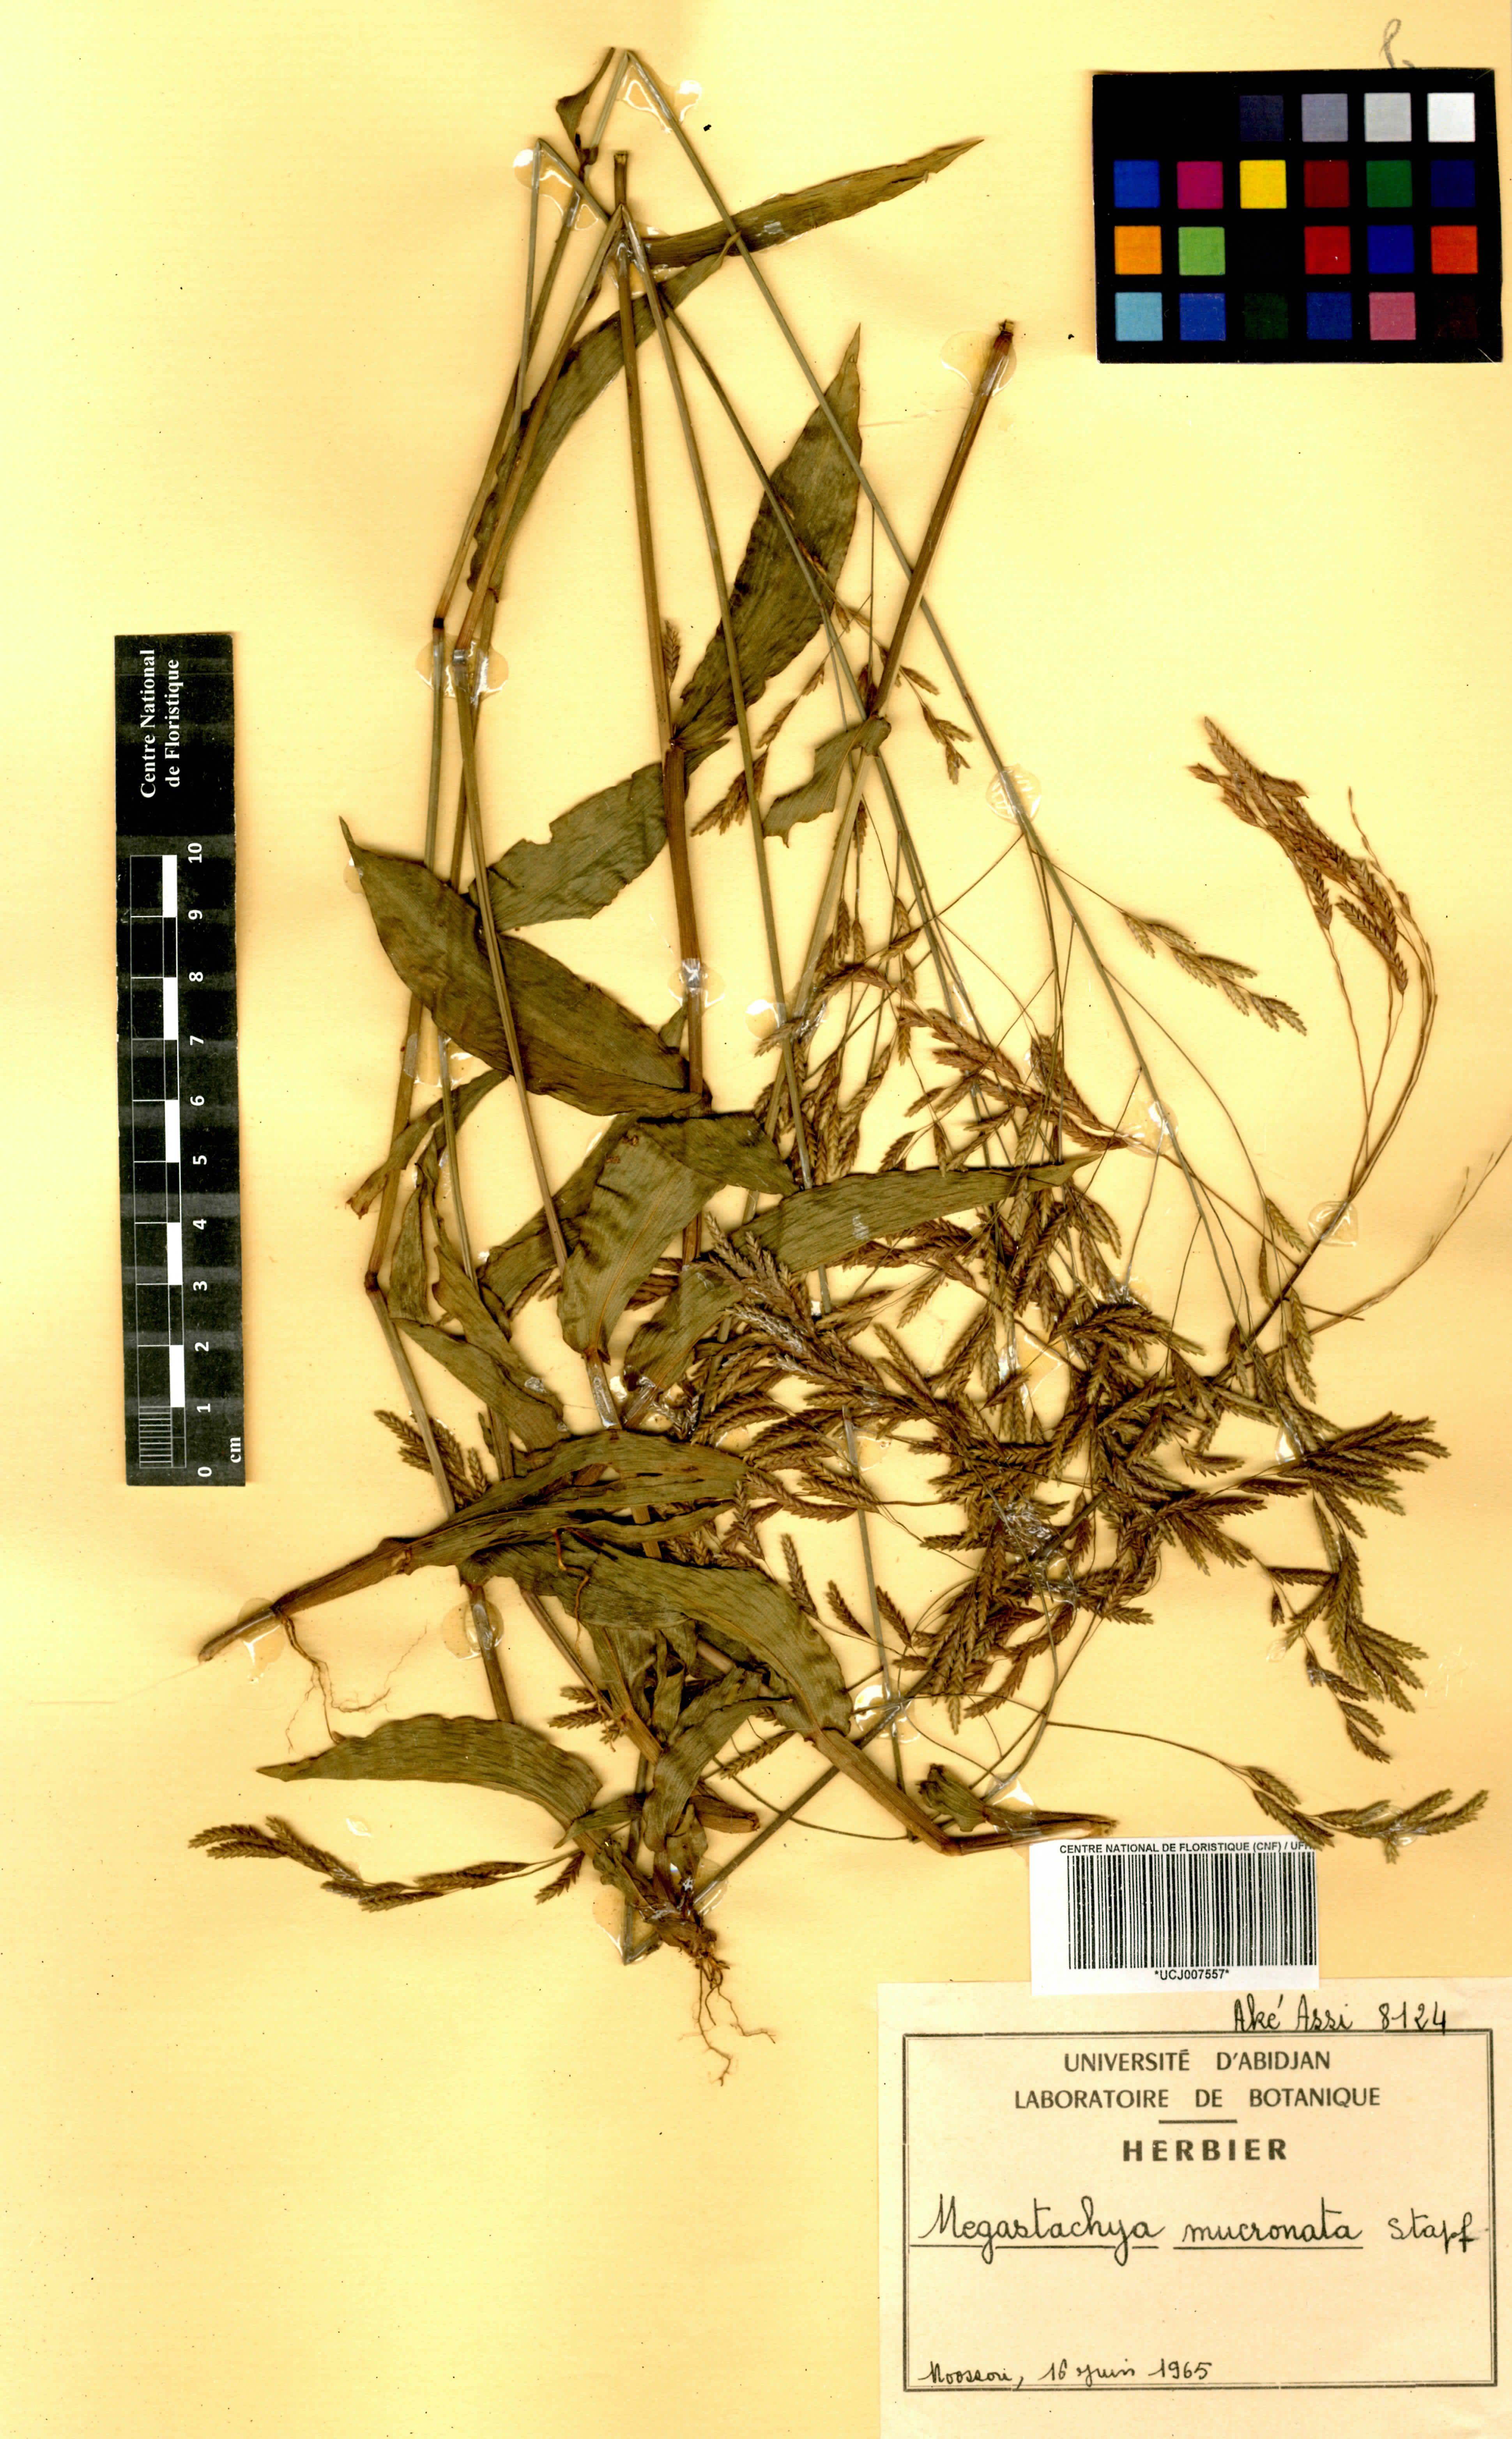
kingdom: Plantae
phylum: Tracheophyta
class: Liliopsida
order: Poales
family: Poaceae
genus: Megastachya
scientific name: Megastachya mucronata
